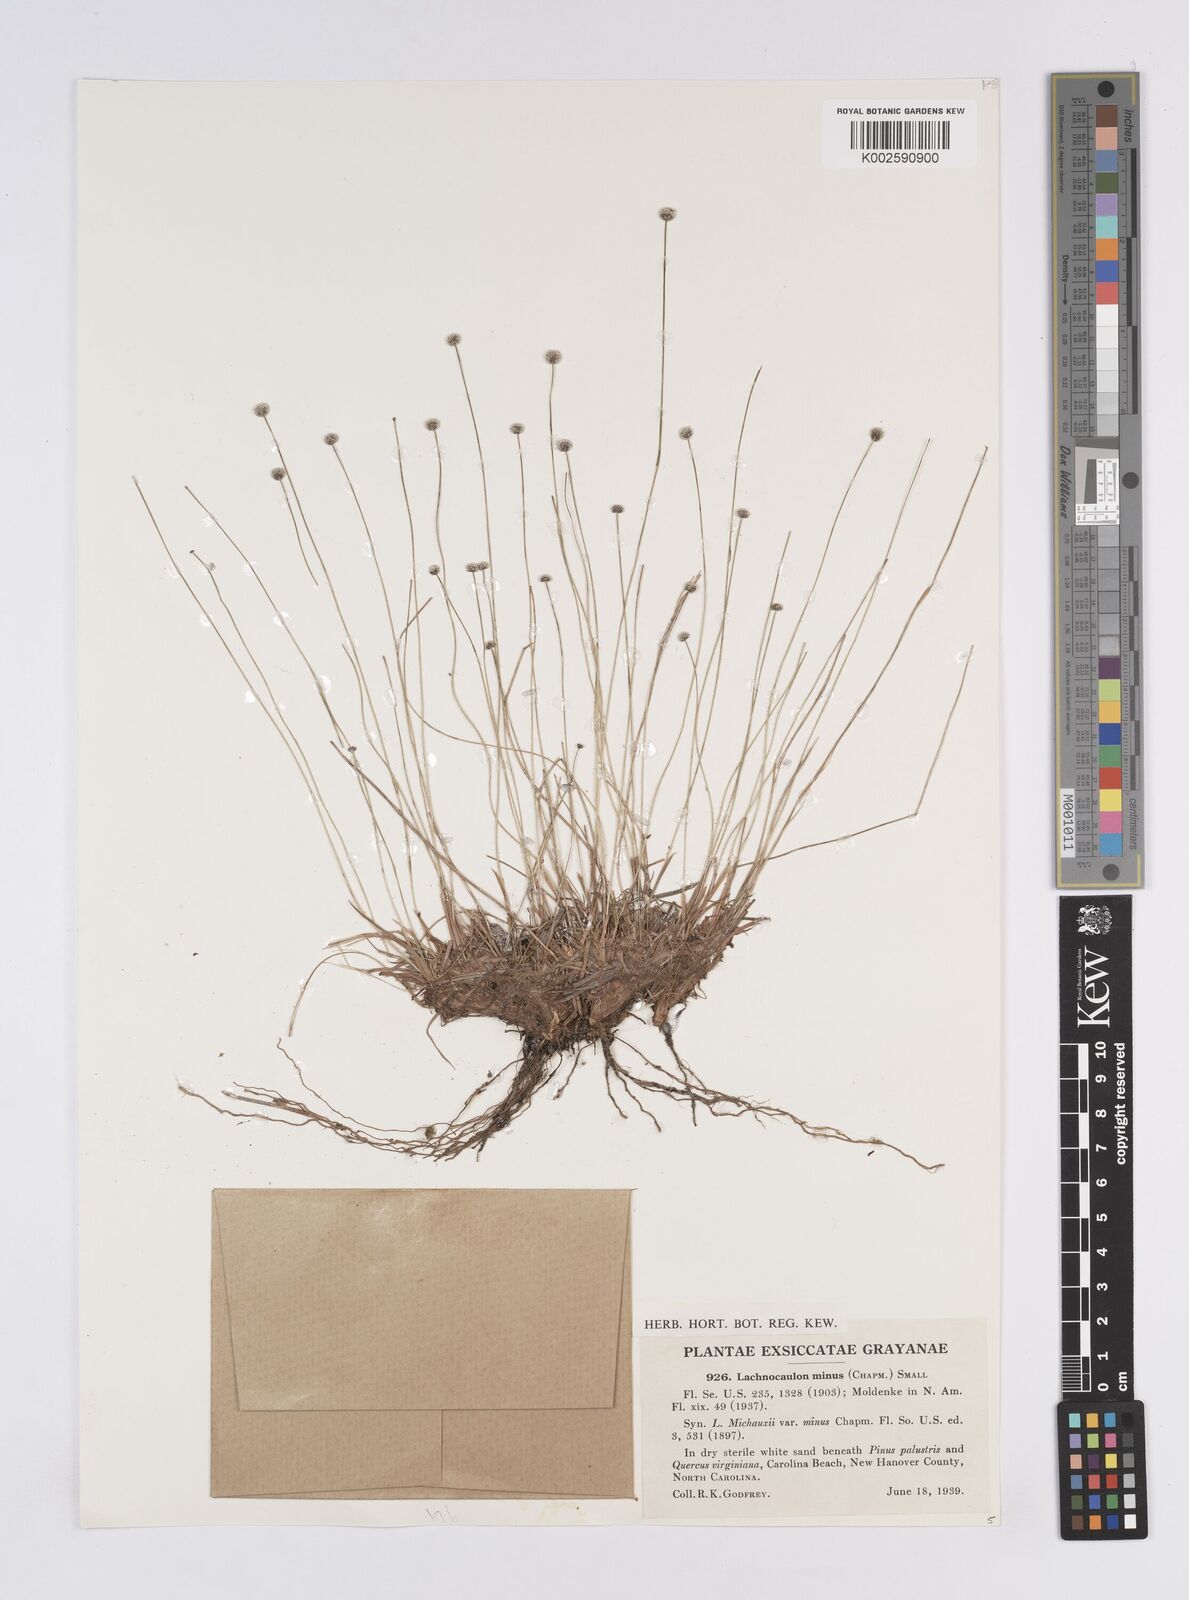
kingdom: Plantae
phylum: Tracheophyta
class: Liliopsida
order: Poales
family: Eriocaulaceae
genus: Paepalanthus
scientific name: Paepalanthus minus
